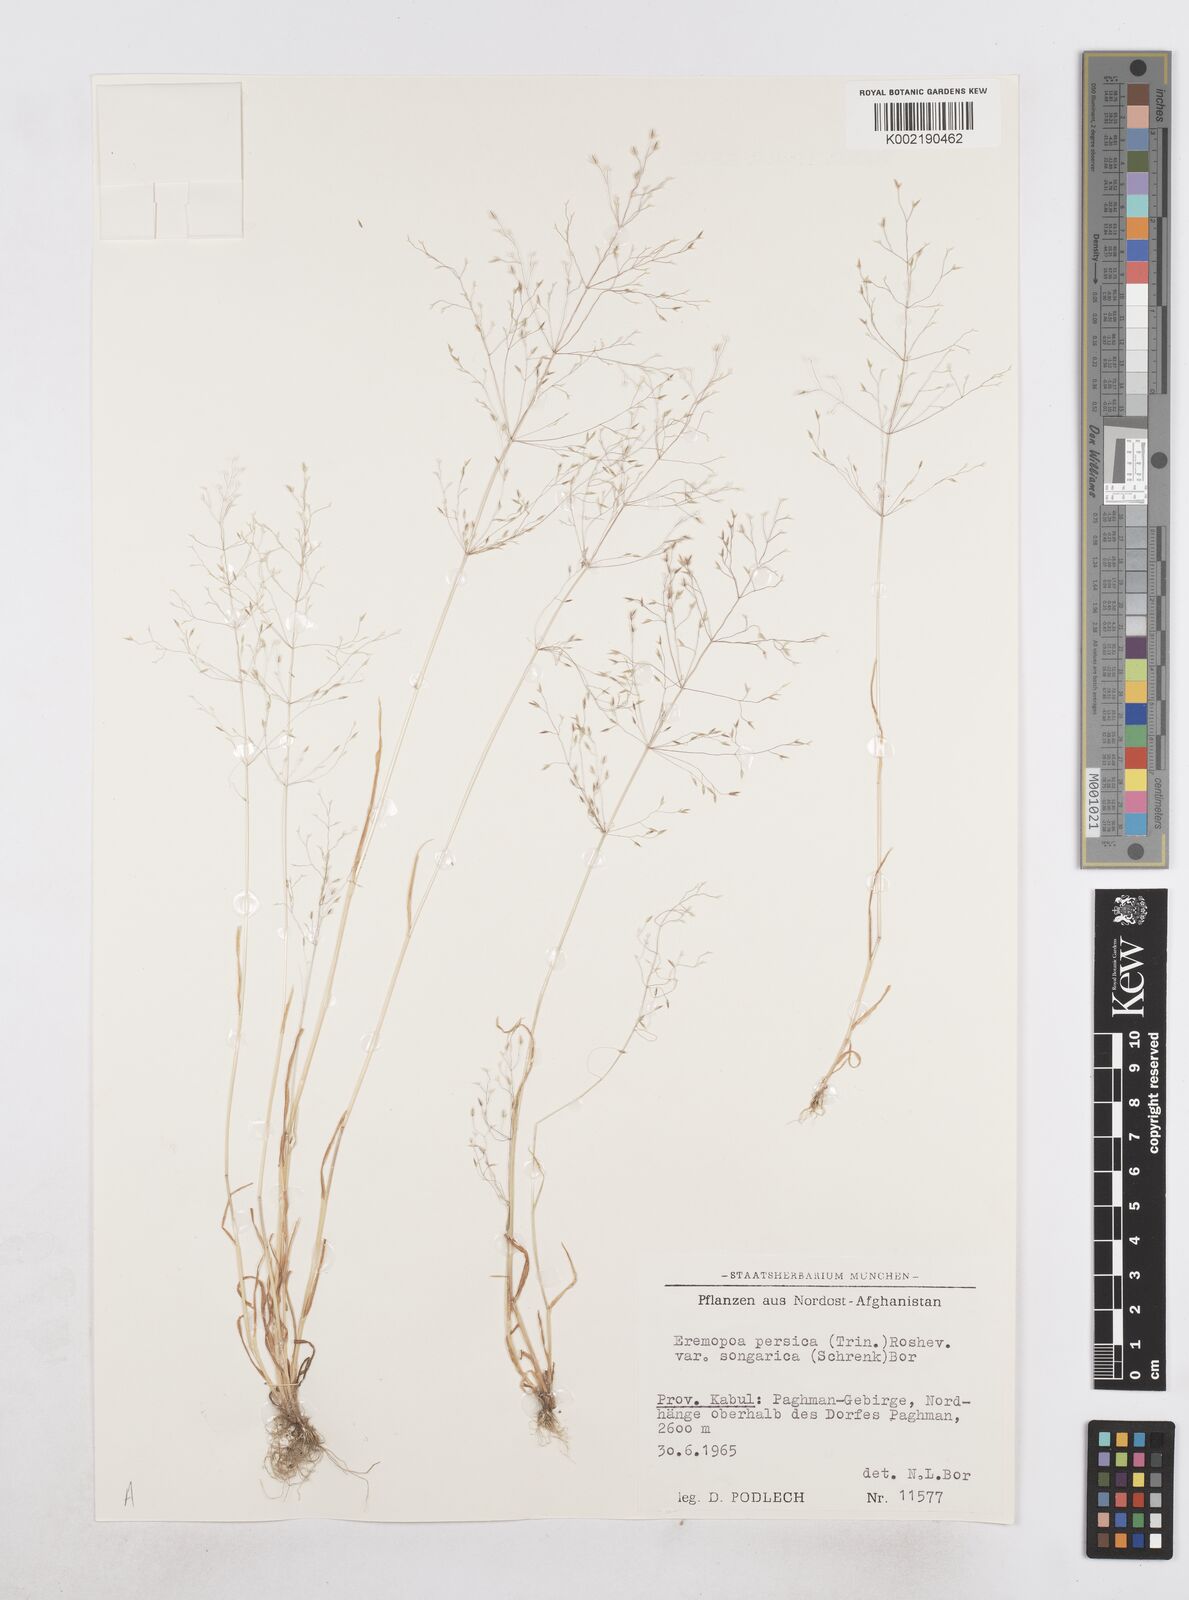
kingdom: Plantae
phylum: Tracheophyta
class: Liliopsida
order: Poales
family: Poaceae
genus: Poa
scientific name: Poa diaphora
